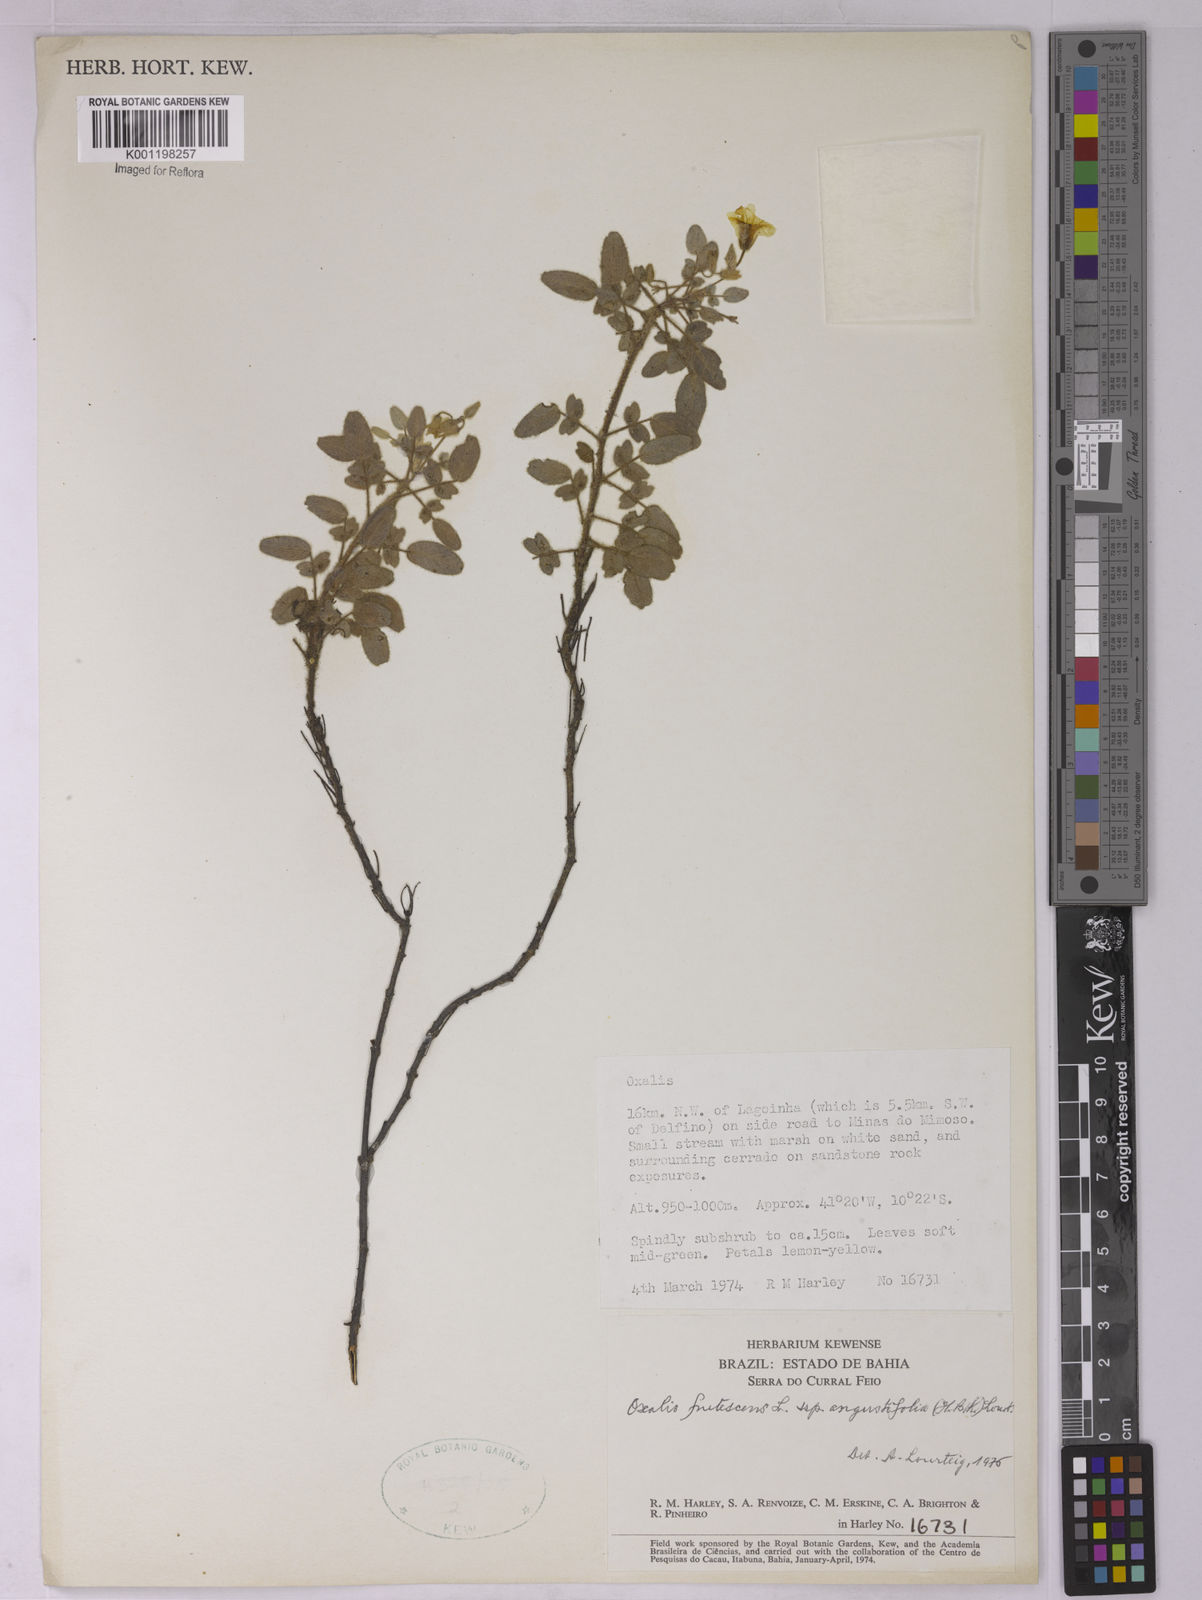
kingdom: Plantae
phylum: Tracheophyta
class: Magnoliopsida
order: Oxalidales
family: Oxalidaceae
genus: Oxalis
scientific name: Oxalis frutescens
